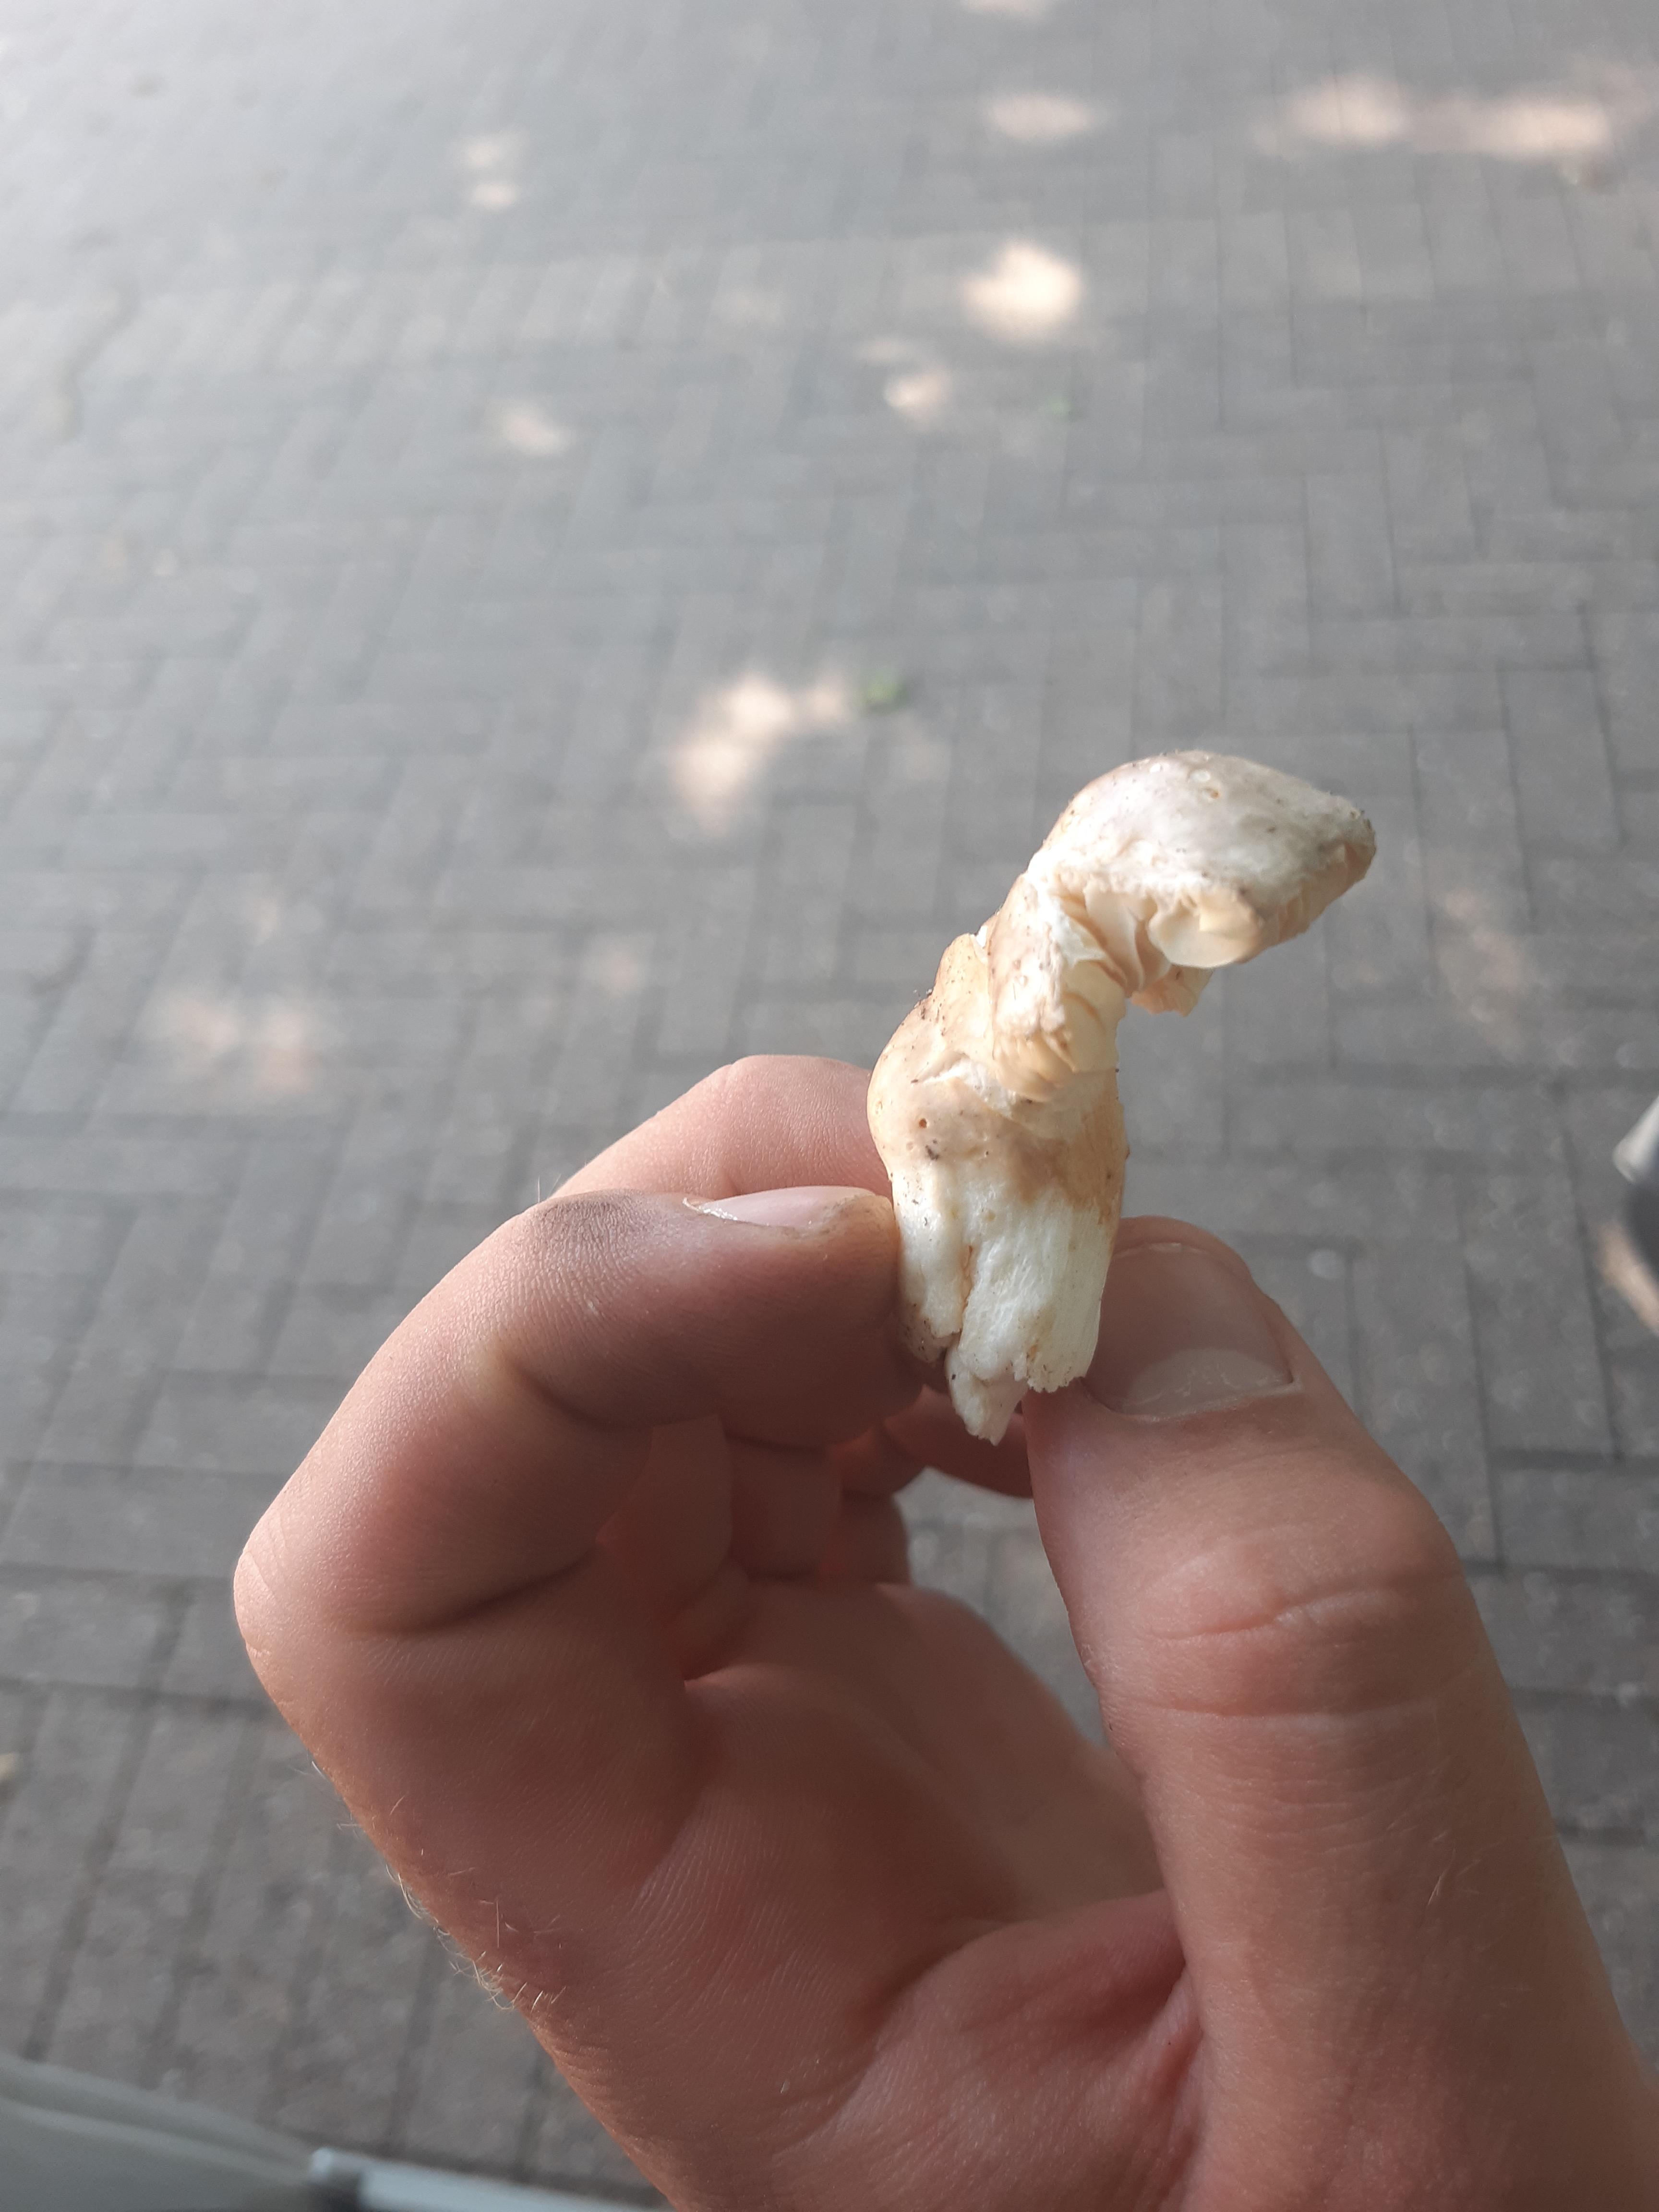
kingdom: Fungi
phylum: Basidiomycota
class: Agaricomycetes
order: Russulales
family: Russulaceae
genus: Russula
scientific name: Russula
